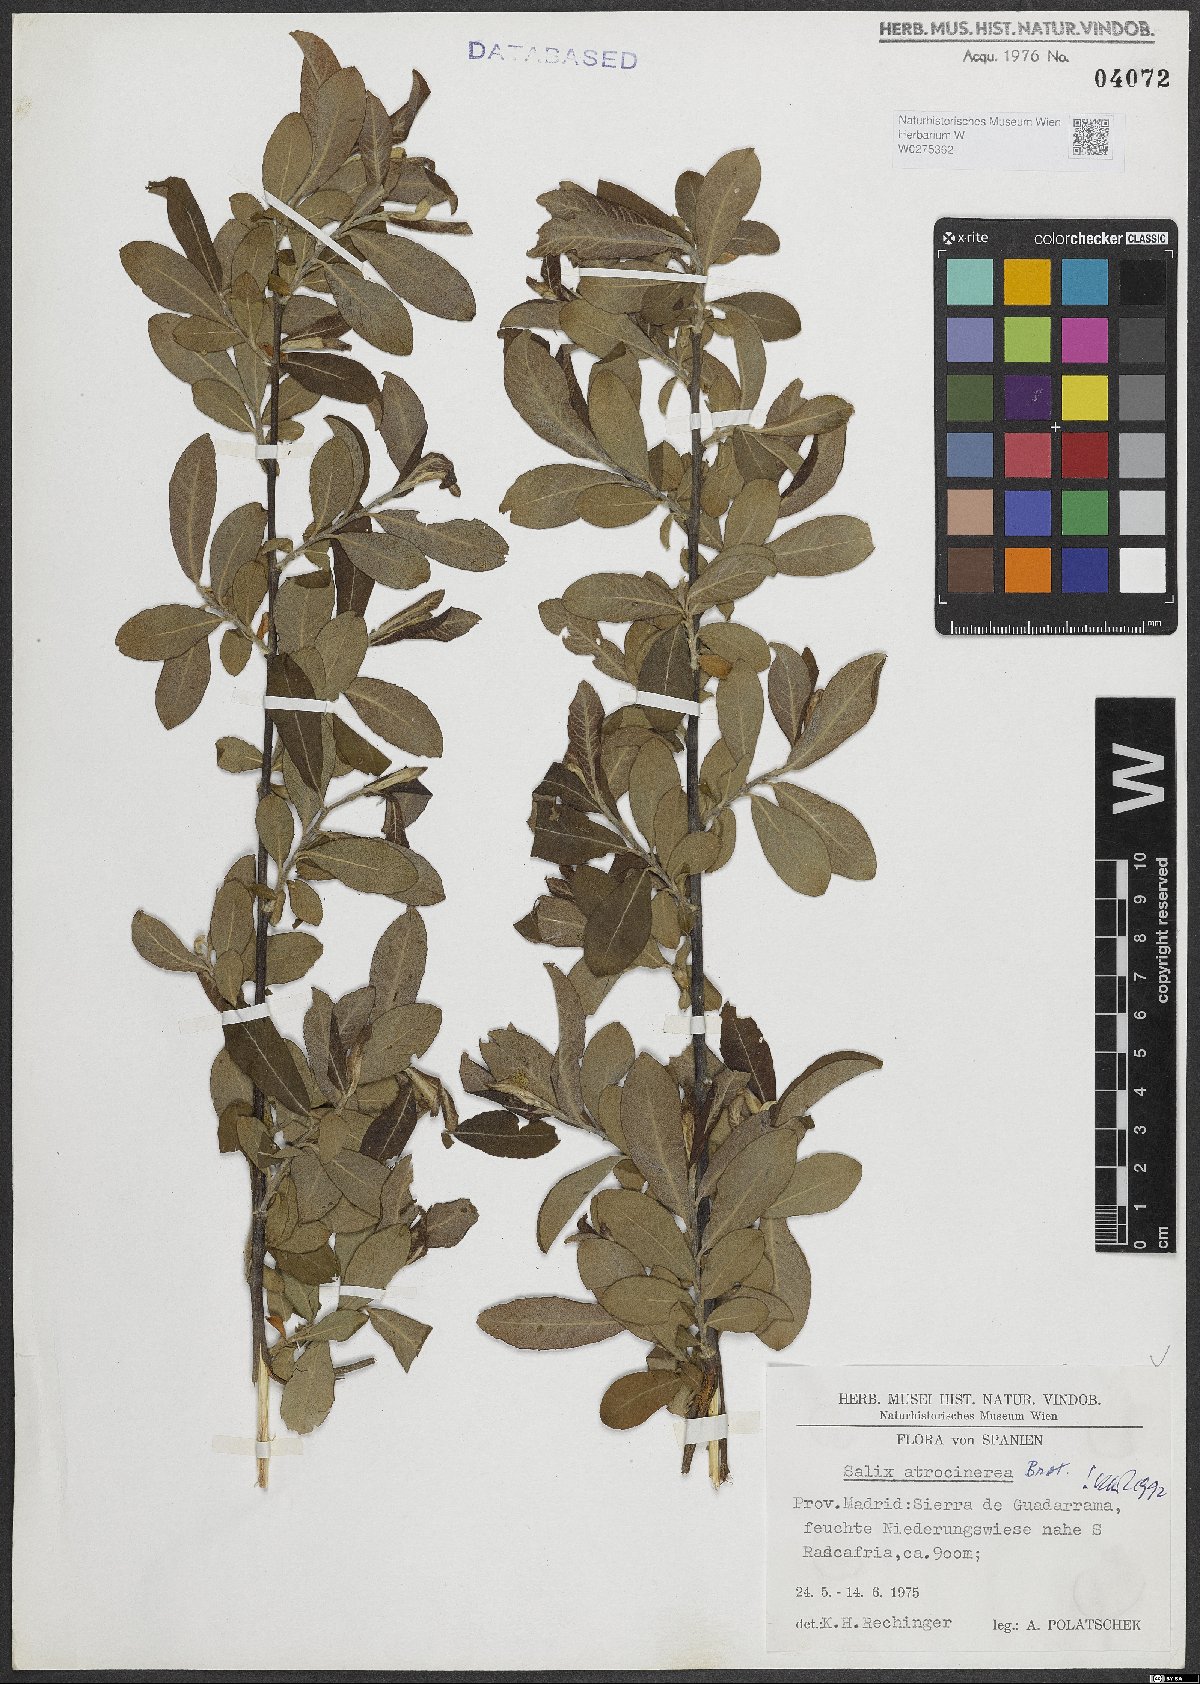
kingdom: Plantae
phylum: Tracheophyta
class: Magnoliopsida
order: Malpighiales
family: Salicaceae
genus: Salix
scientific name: Salix atrocinerea
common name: Rusty willow
